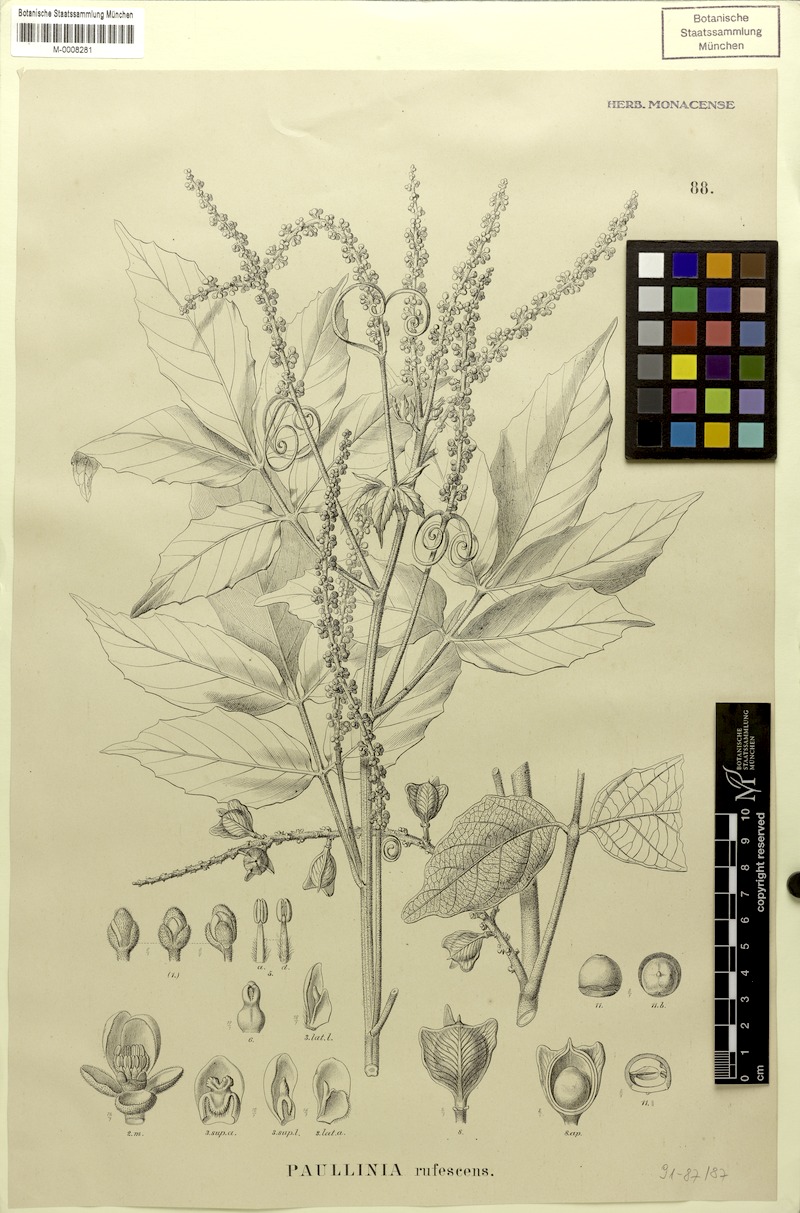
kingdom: Plantae
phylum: Tracheophyta
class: Magnoliopsida
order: Sapindales
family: Sapindaceae
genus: Paullinia
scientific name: Paullinia rufescens
